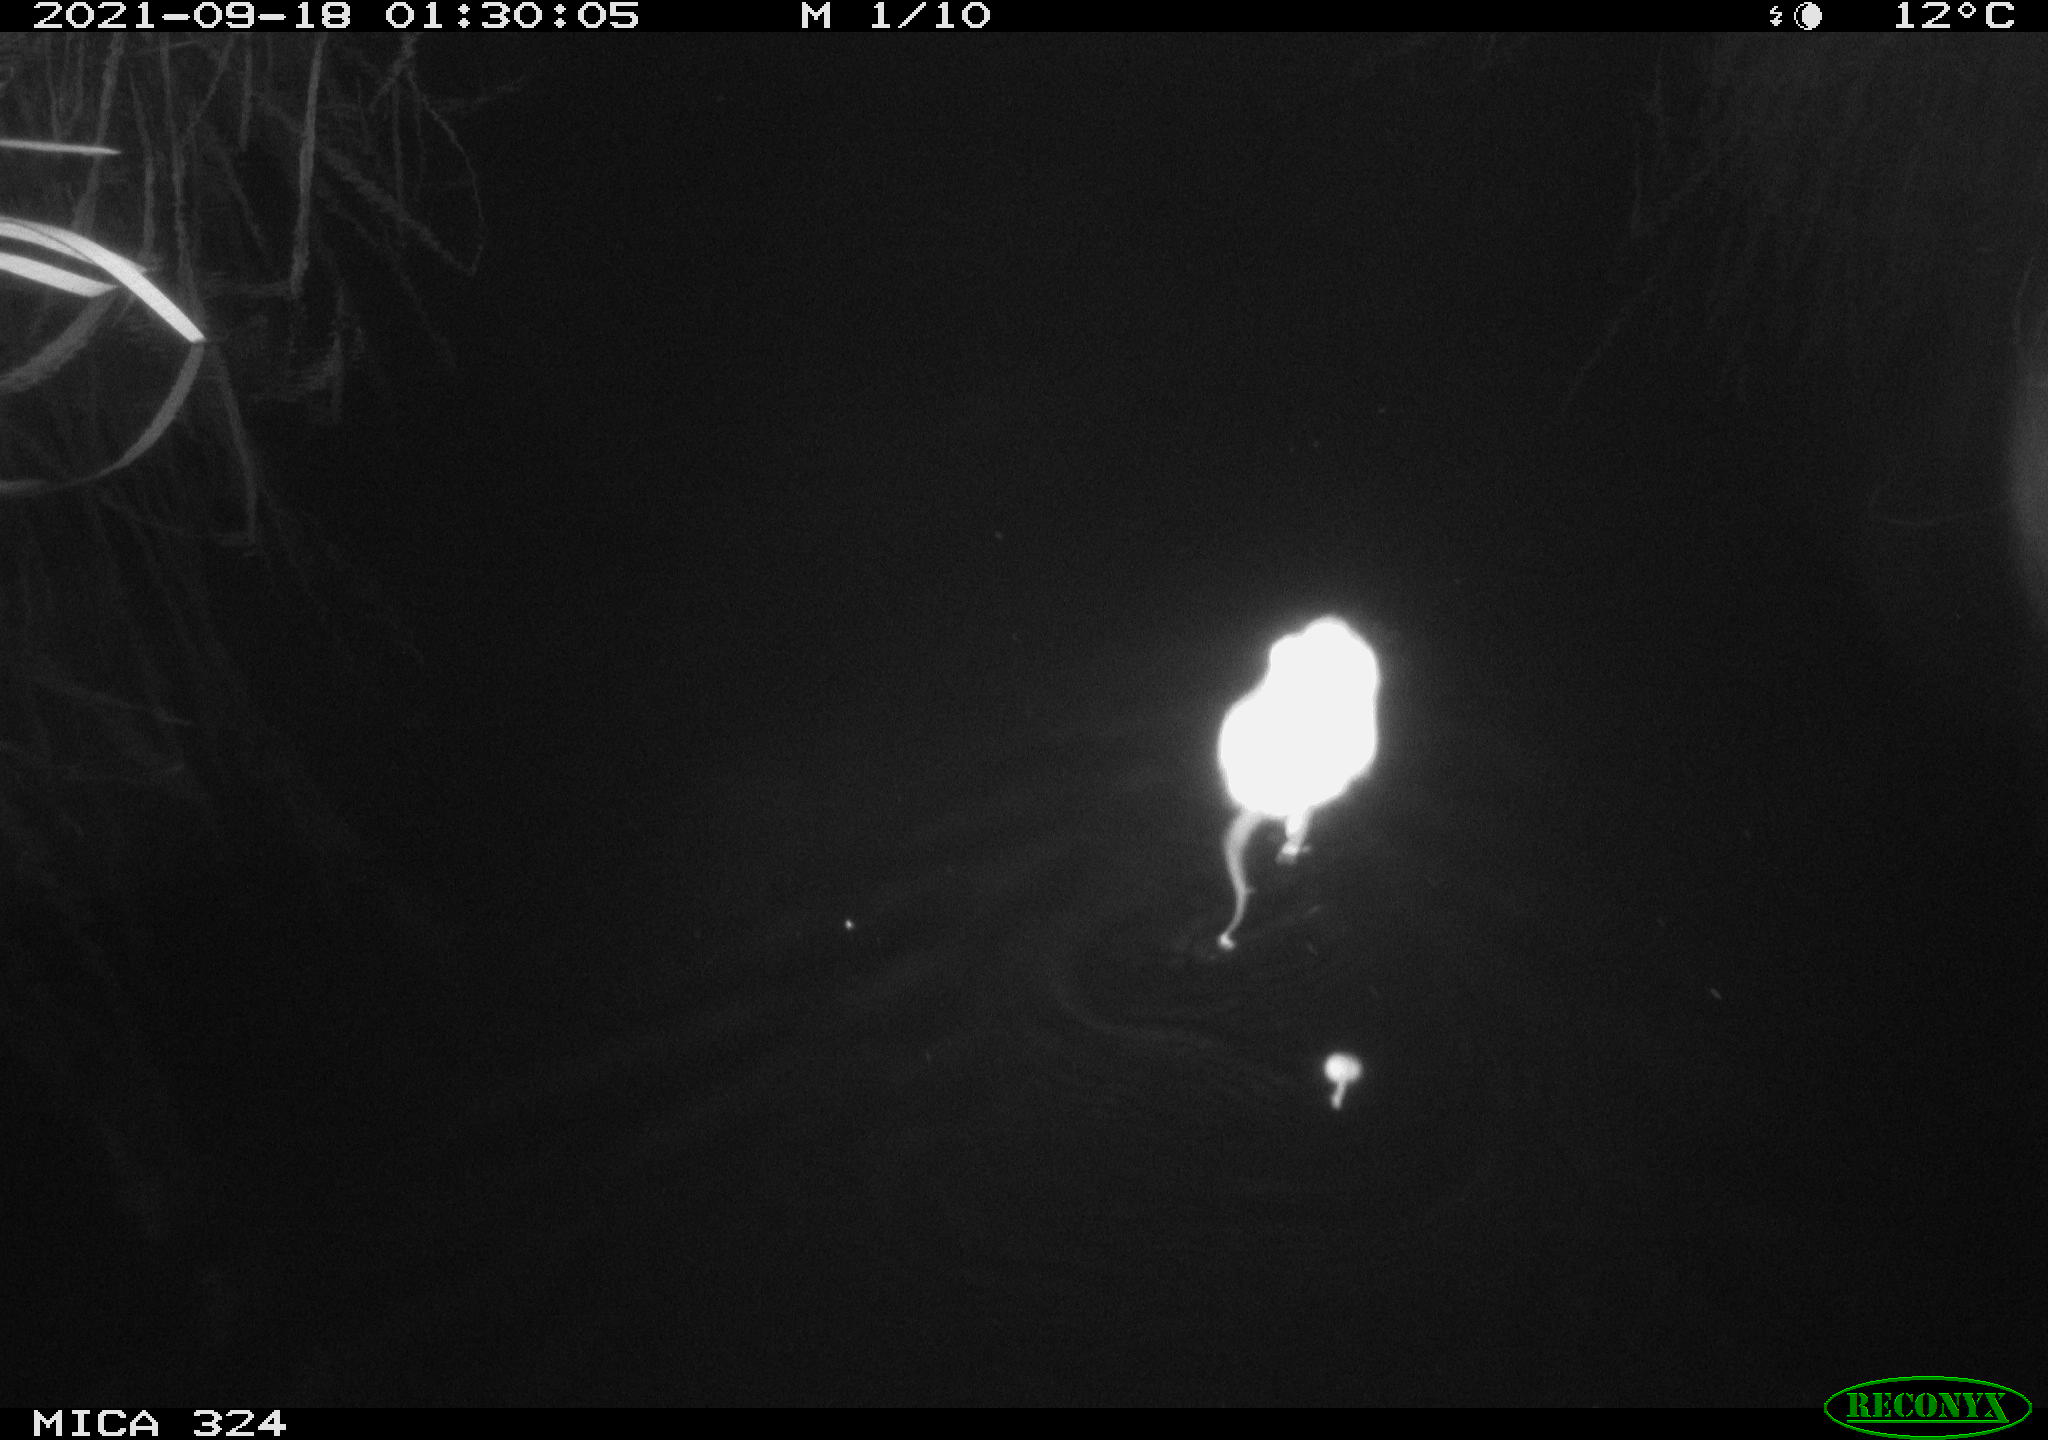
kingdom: Animalia
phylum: Chordata
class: Mammalia
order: Rodentia
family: Cricetidae
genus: Ondatra
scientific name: Ondatra zibethicus
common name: Muskrat
